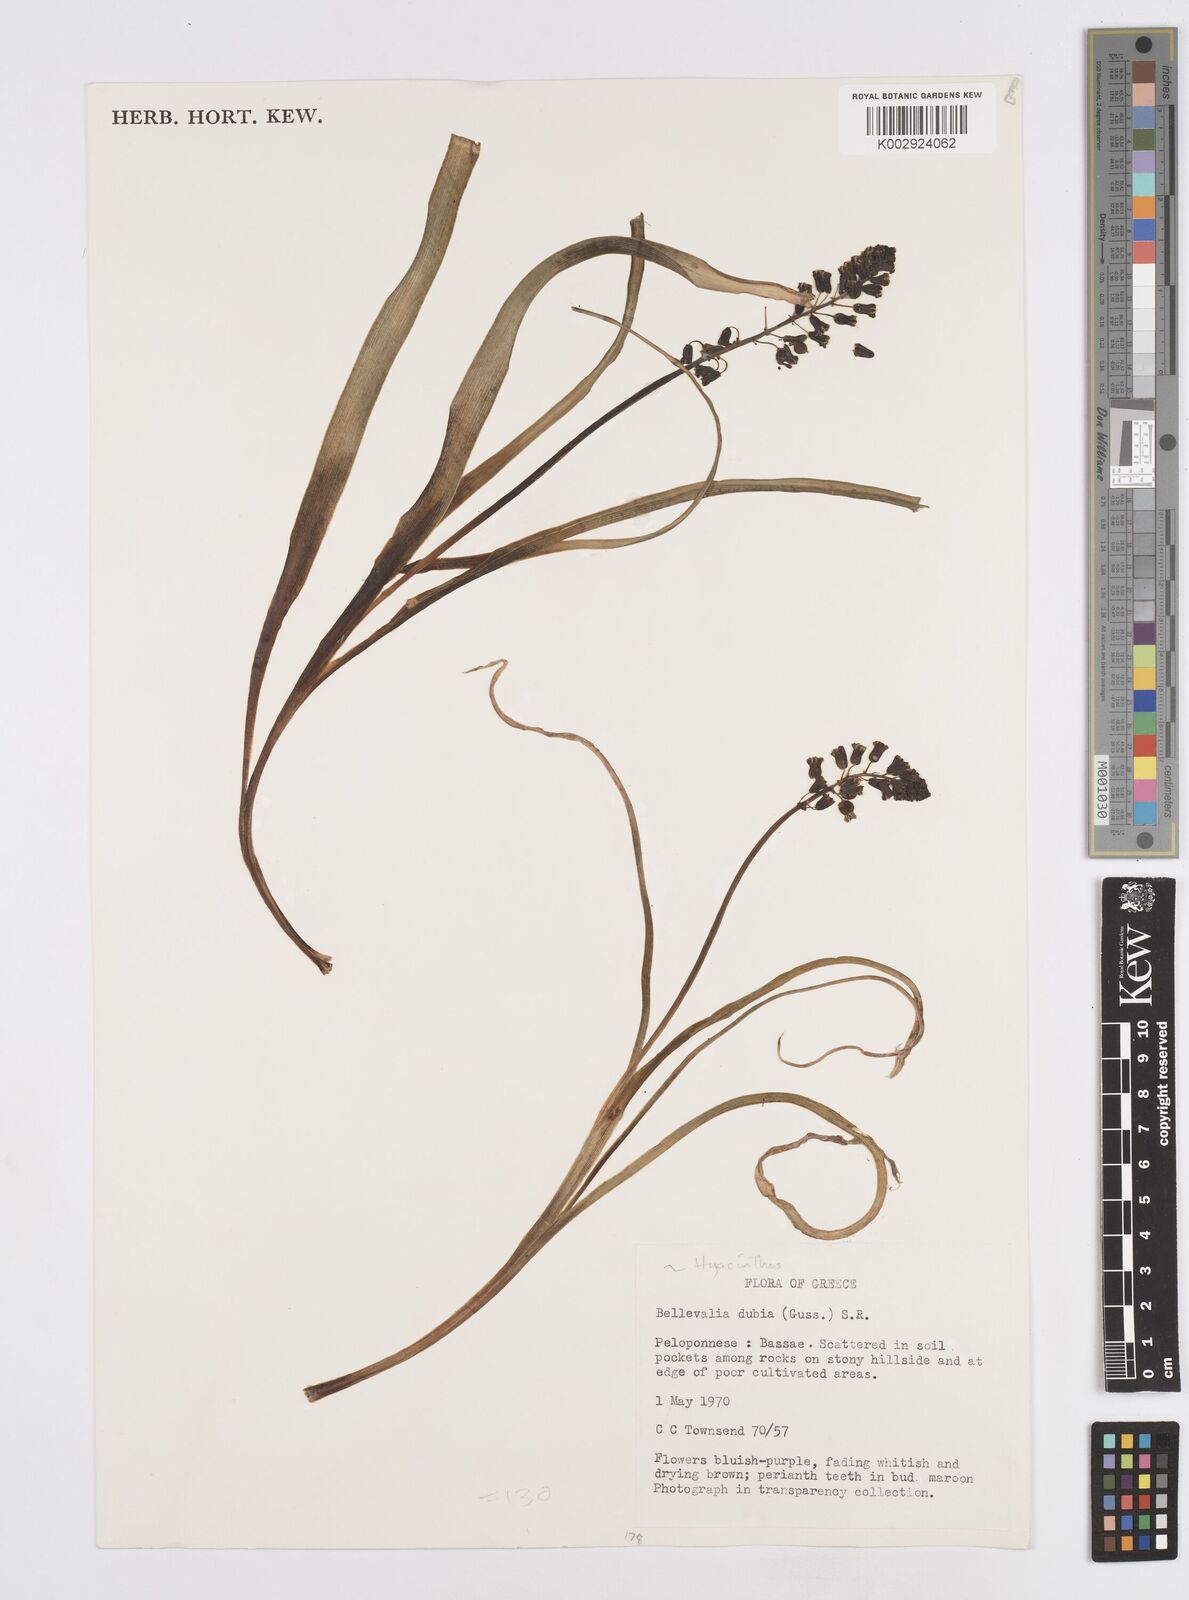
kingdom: Plantae
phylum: Tracheophyta
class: Liliopsida
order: Asparagales
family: Asparagaceae
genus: Bellevalia
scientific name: Bellevalia dubia
